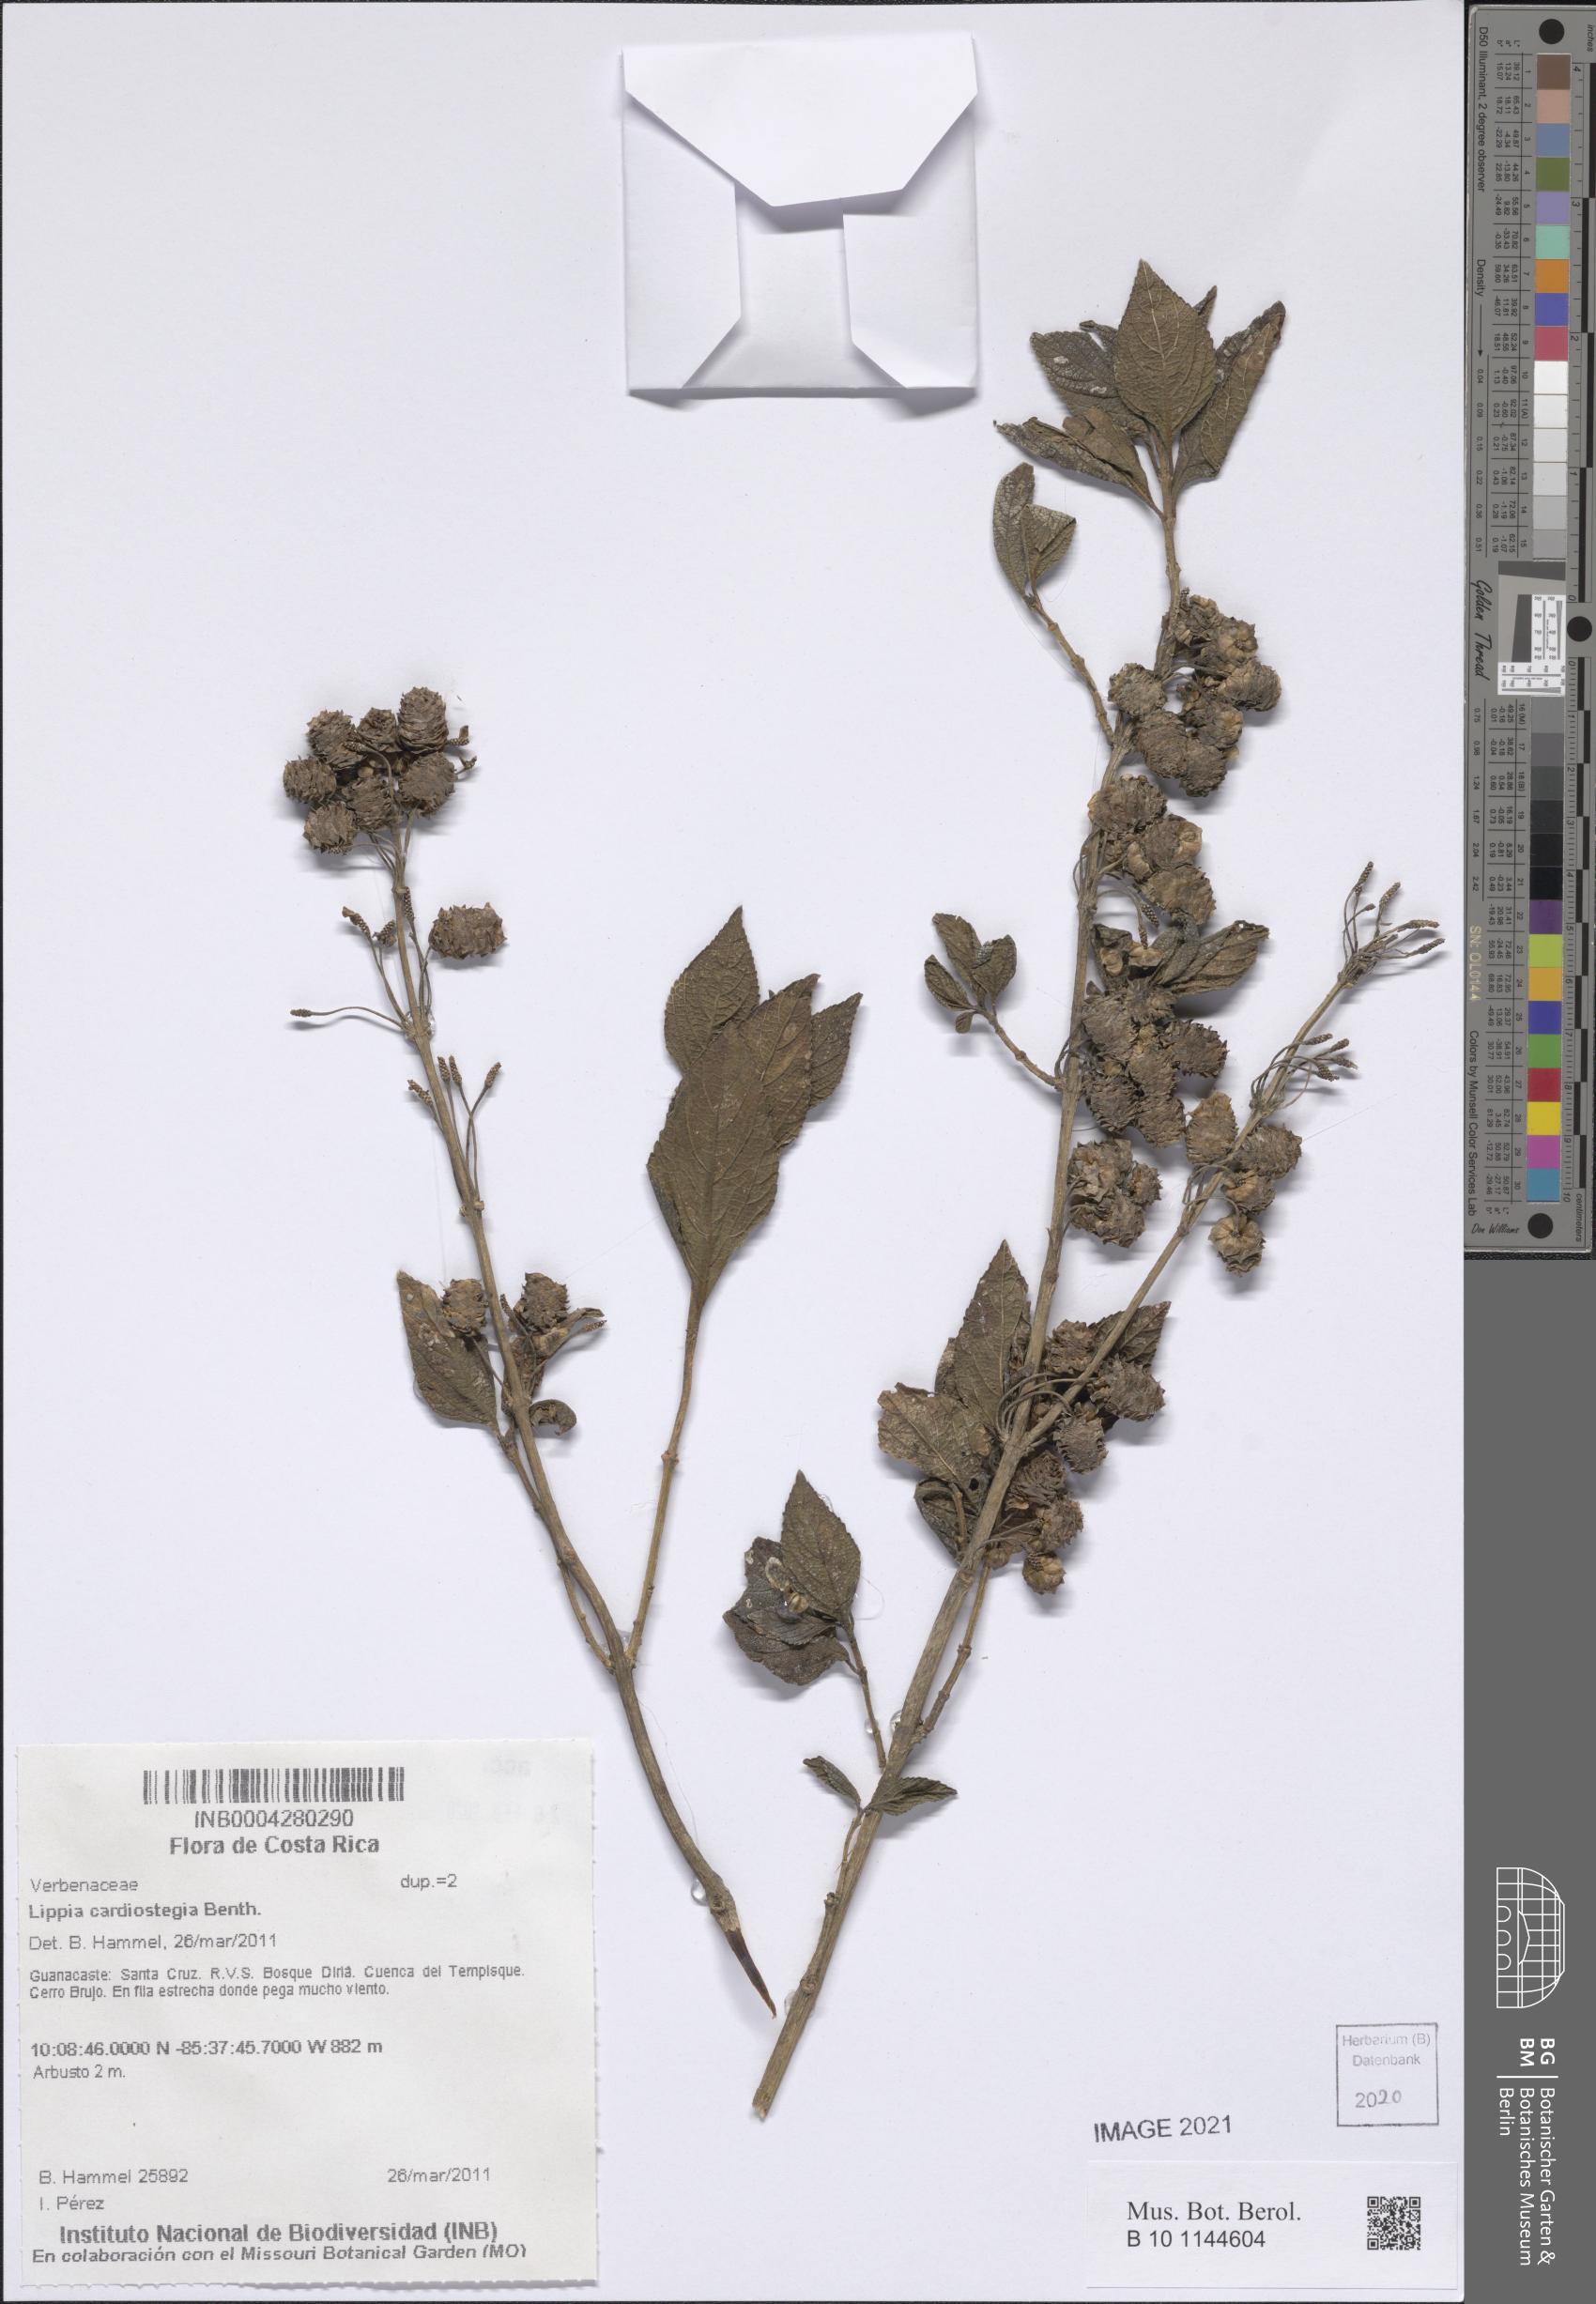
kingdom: Plantae
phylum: Tracheophyta
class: Magnoliopsida
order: Lamiales
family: Verbenaceae
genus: Lippia
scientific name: Lippia cardiostegia
